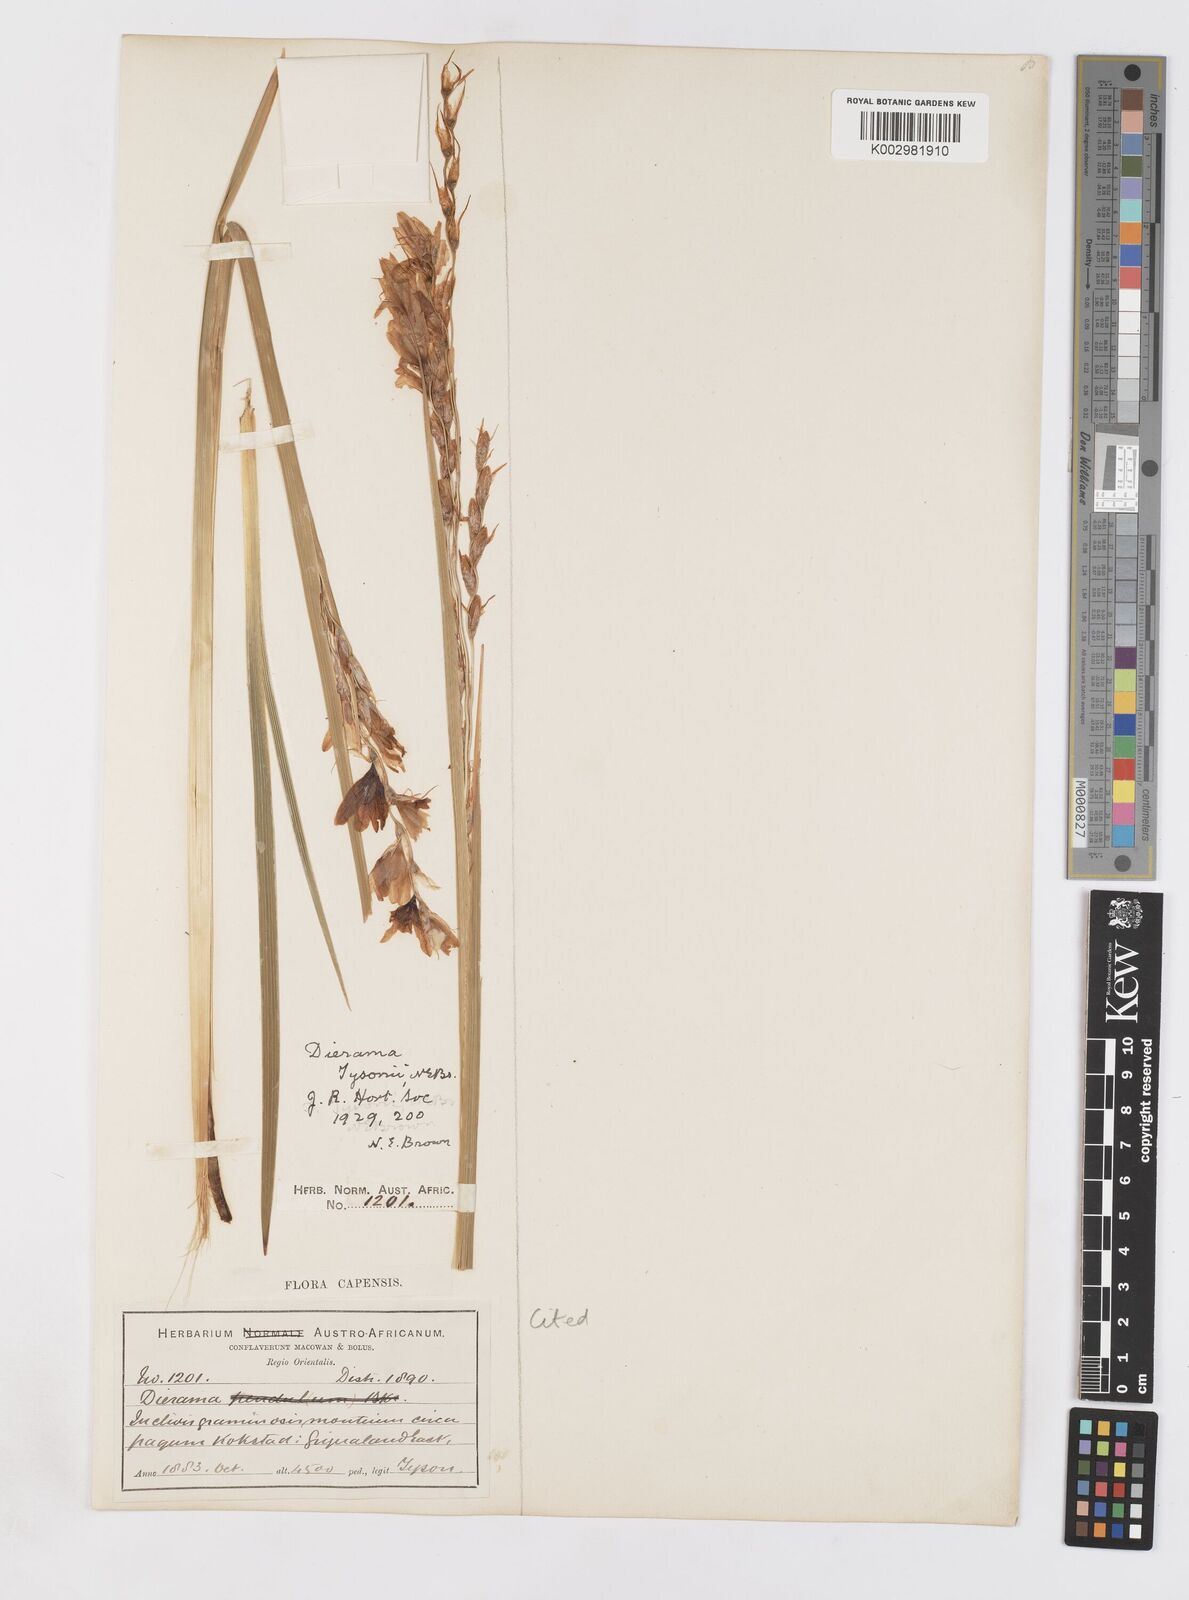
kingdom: Plantae
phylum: Tracheophyta
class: Liliopsida
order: Asparagales
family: Iridaceae
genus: Dierama
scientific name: Dierama tysonii
